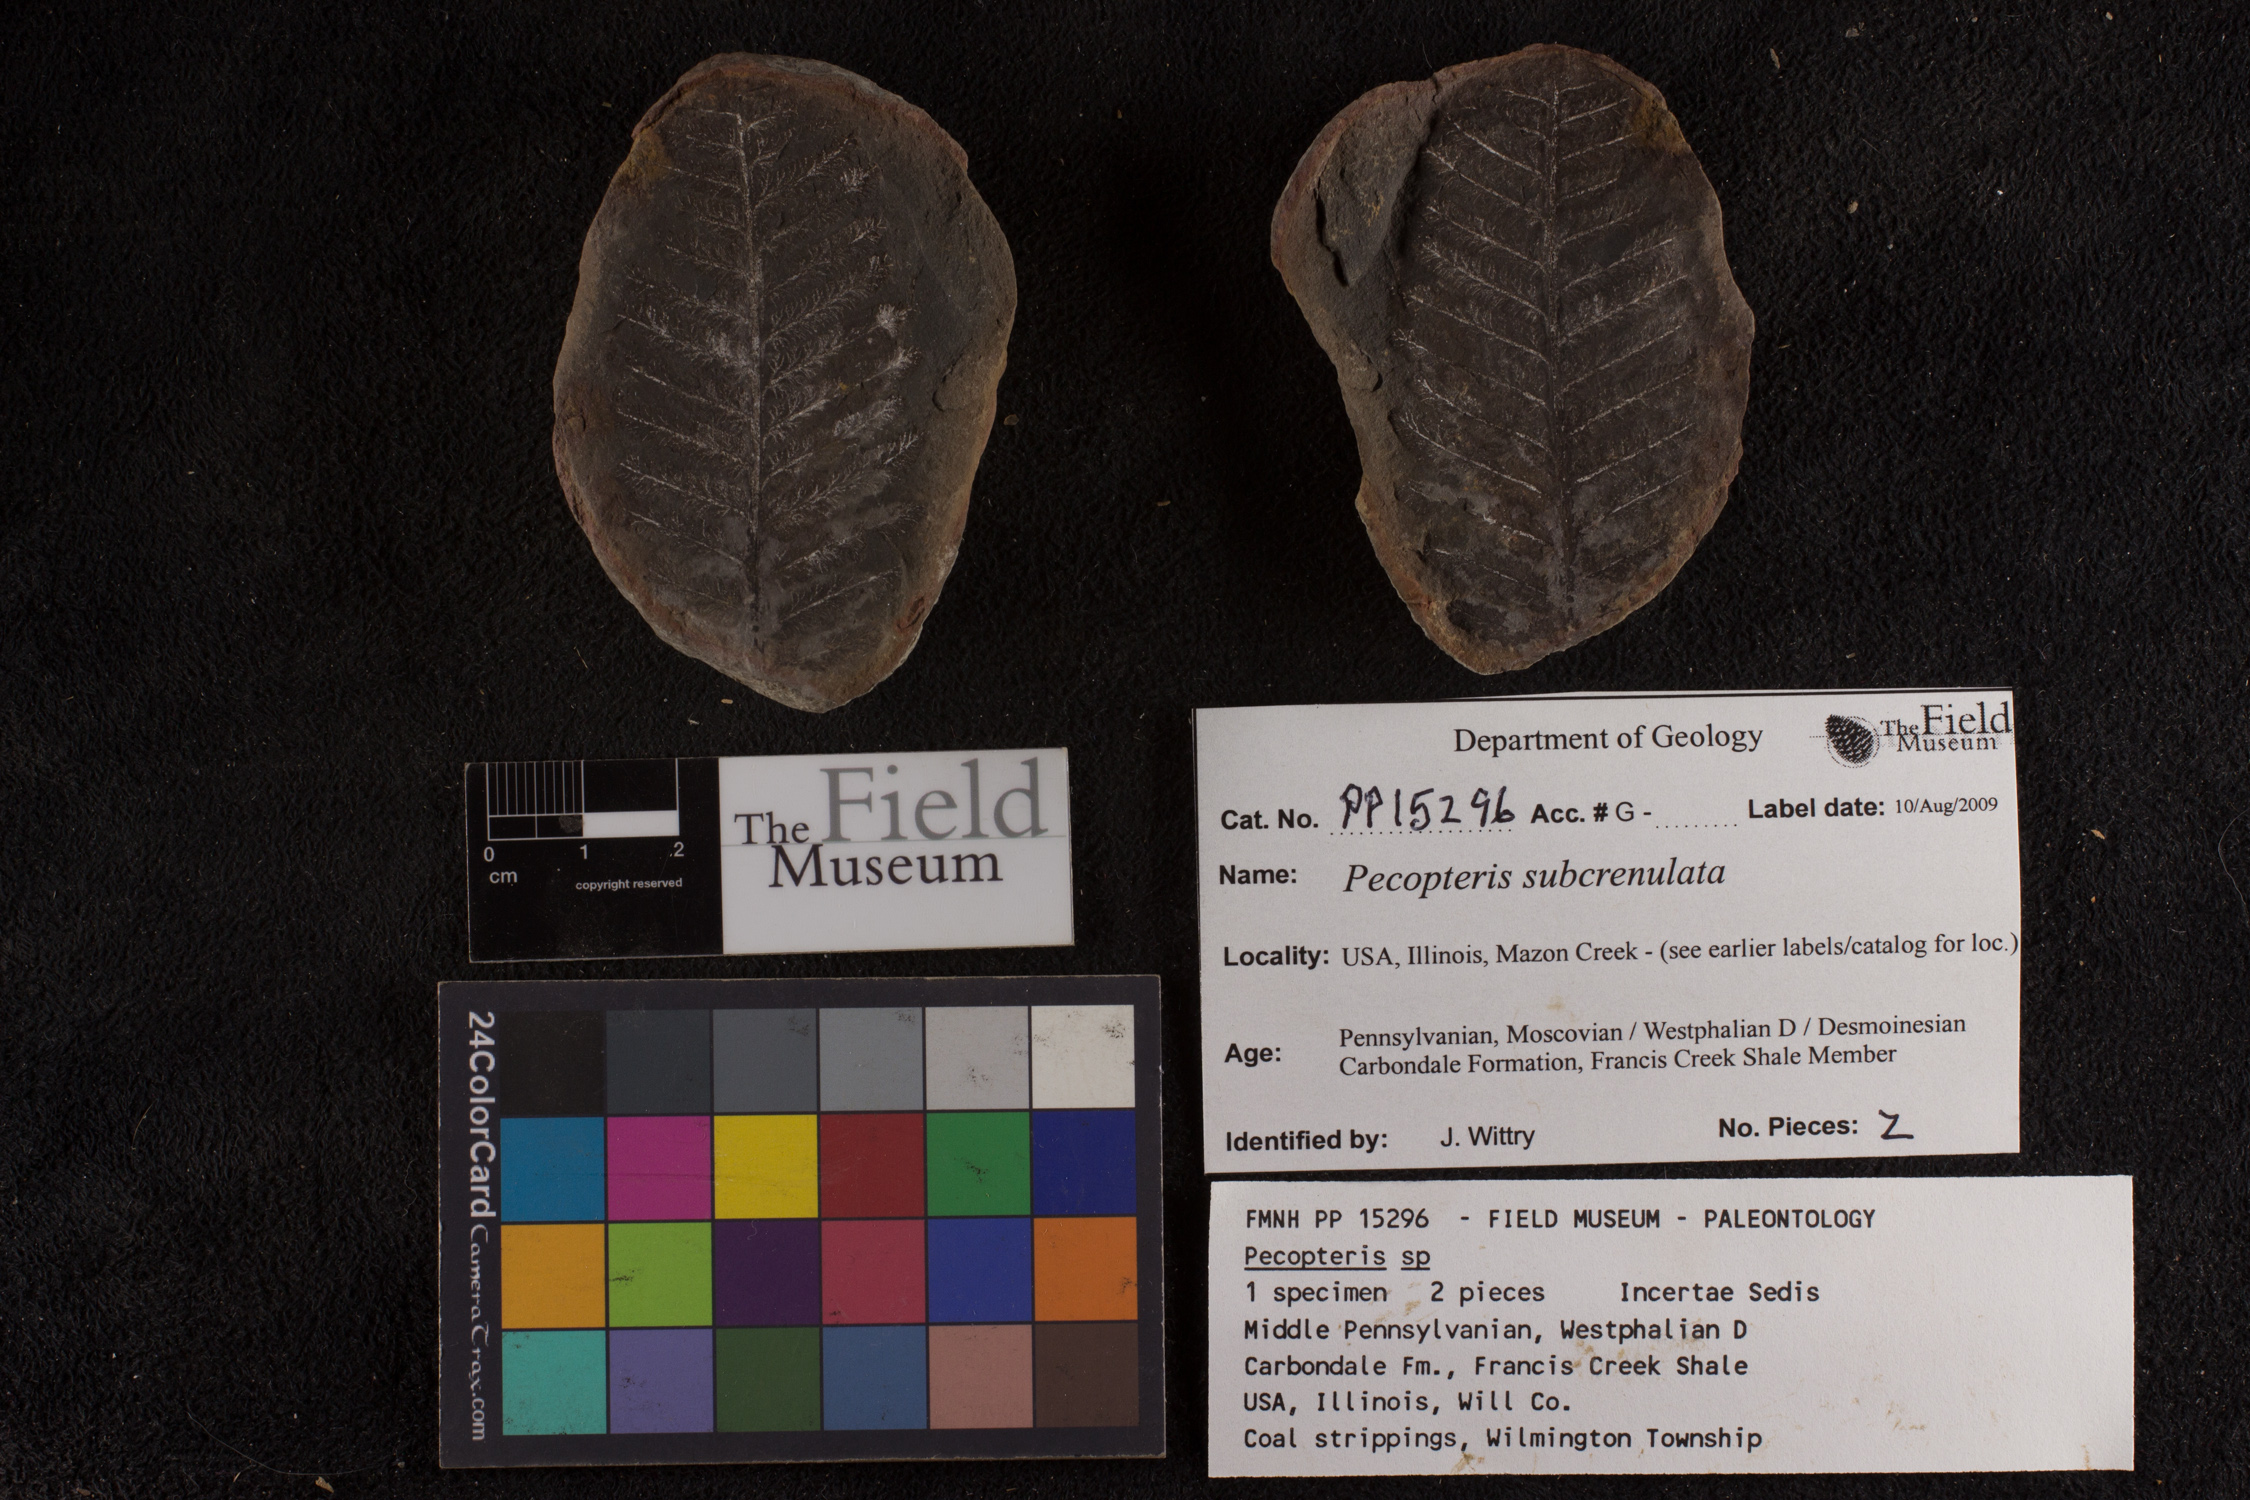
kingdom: Plantae
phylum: Tracheophyta
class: Polypodiopsida
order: Marattiales
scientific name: Marattiales
